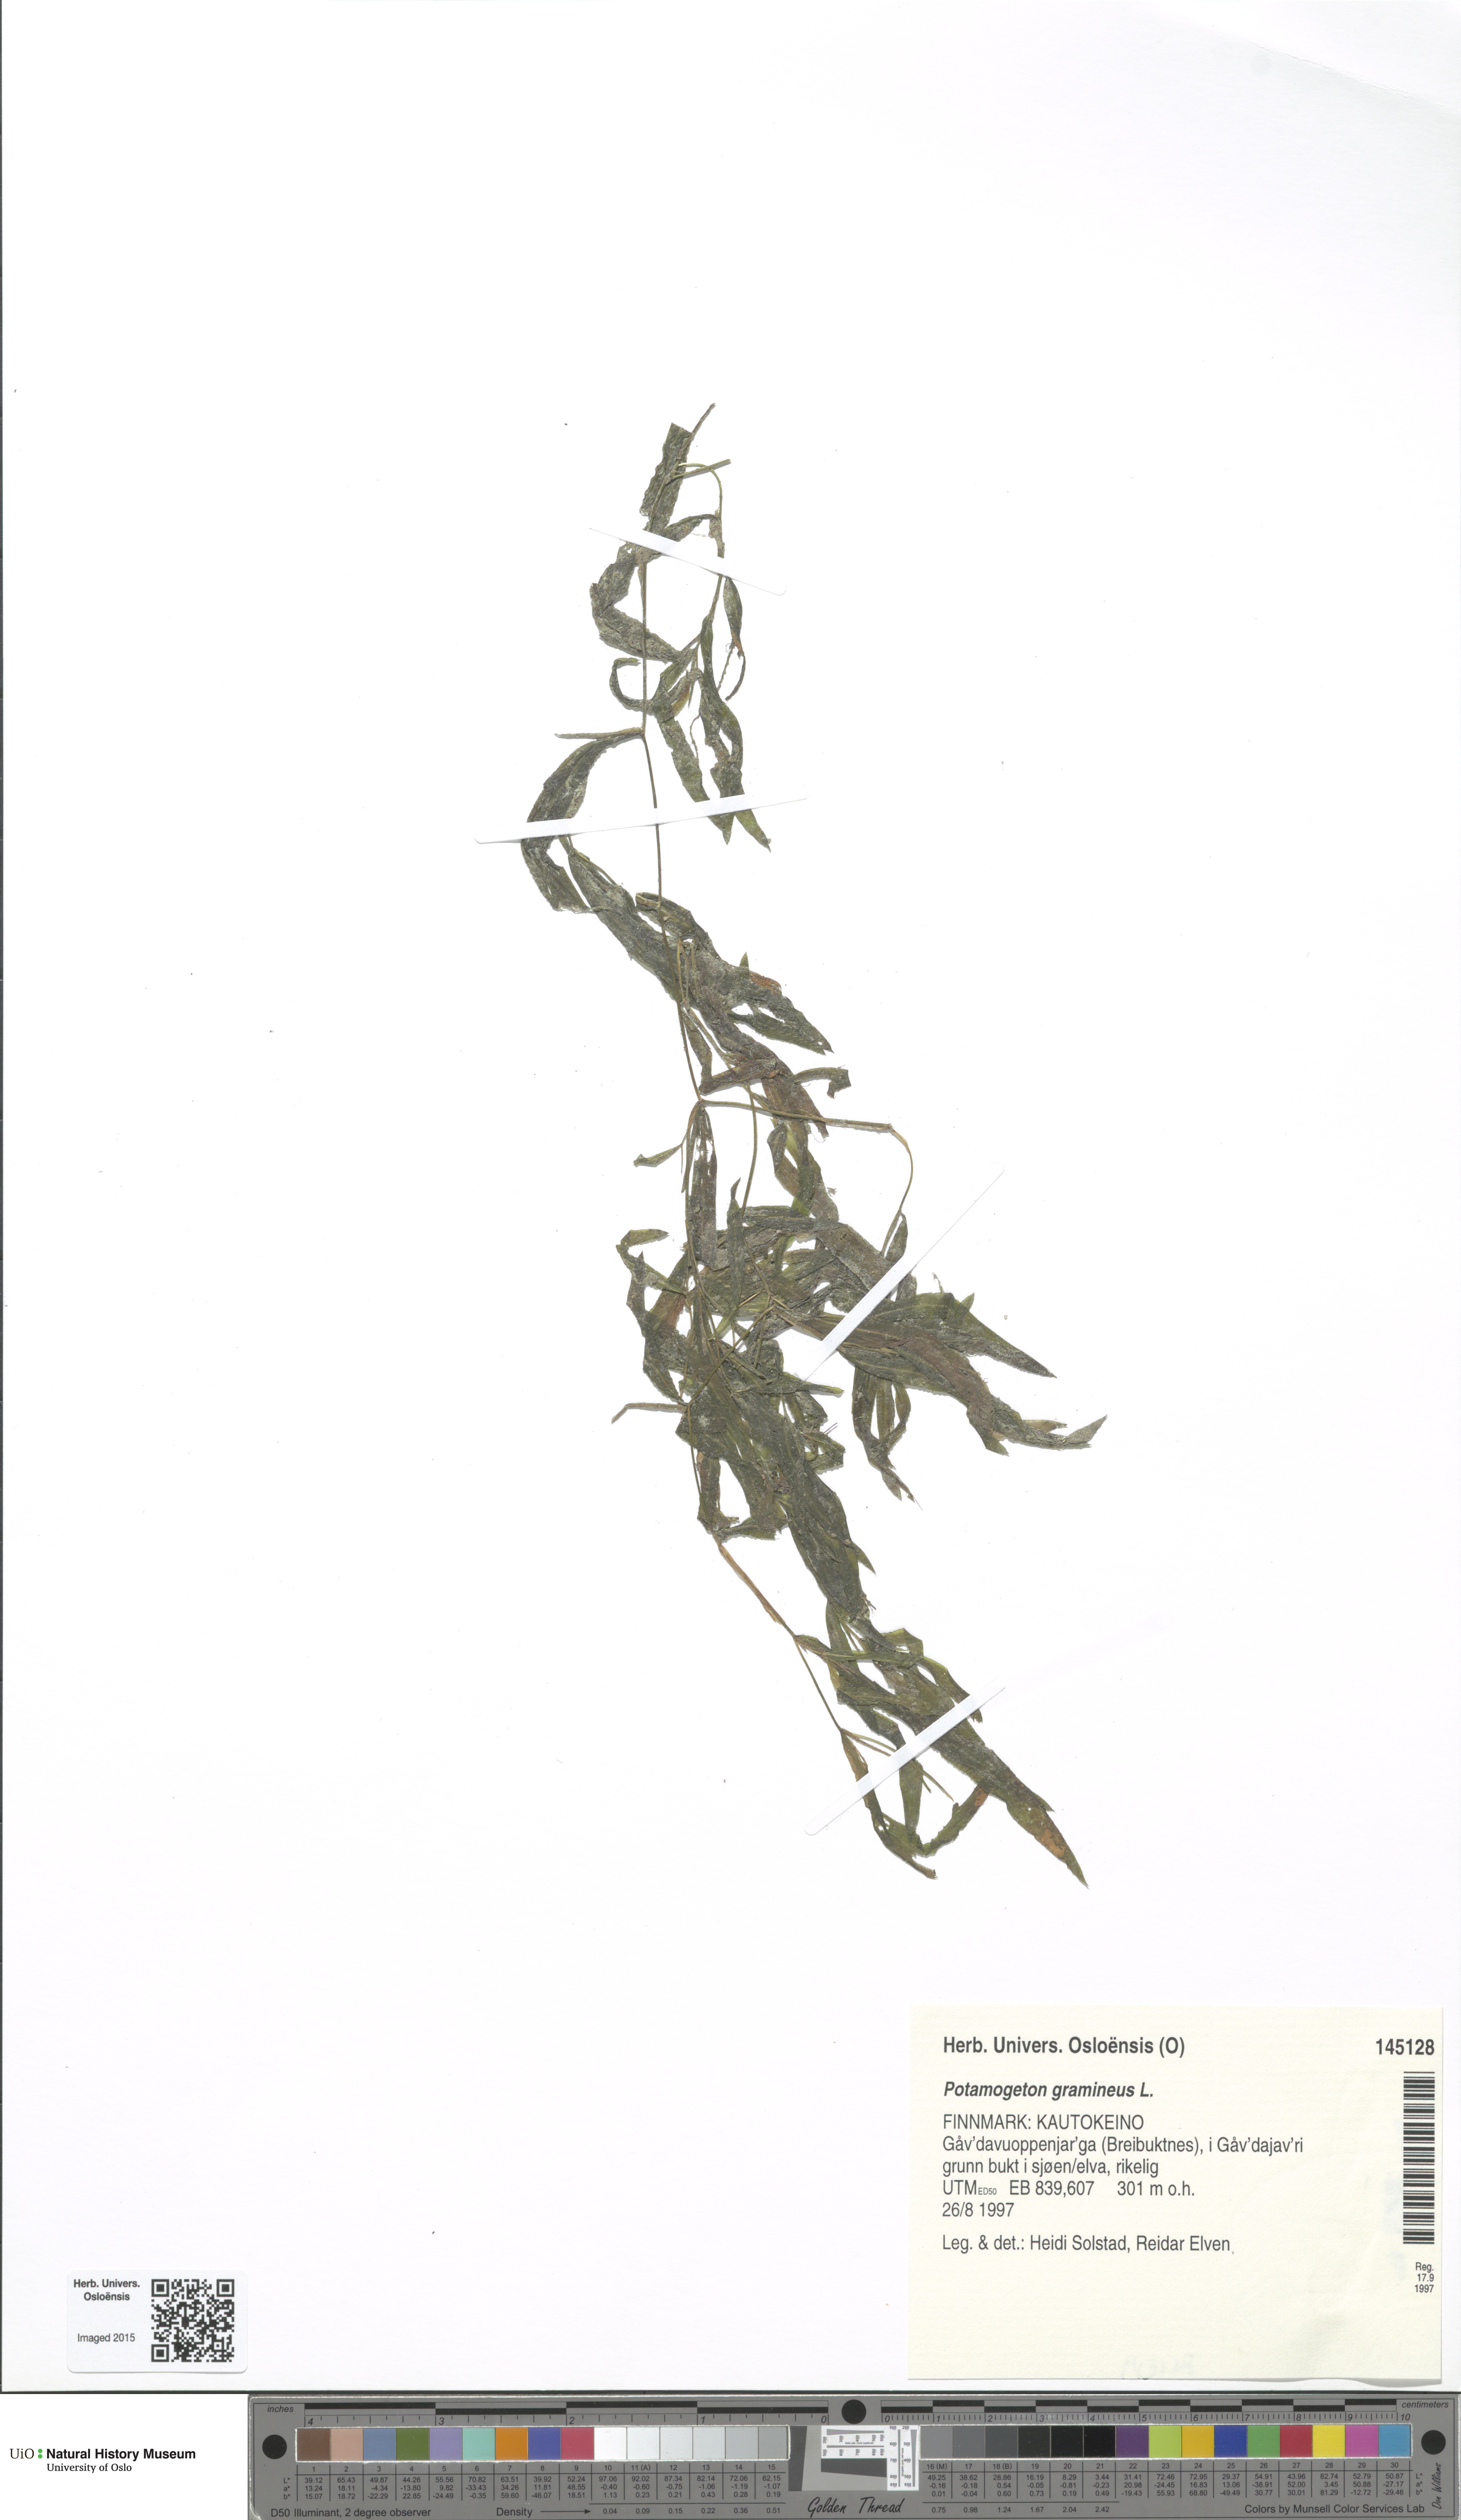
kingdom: Plantae
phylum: Tracheophyta
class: Liliopsida
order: Alismatales
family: Potamogetonaceae
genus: Potamogeton
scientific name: Potamogeton gramineus
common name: Various-leaved pondweed
